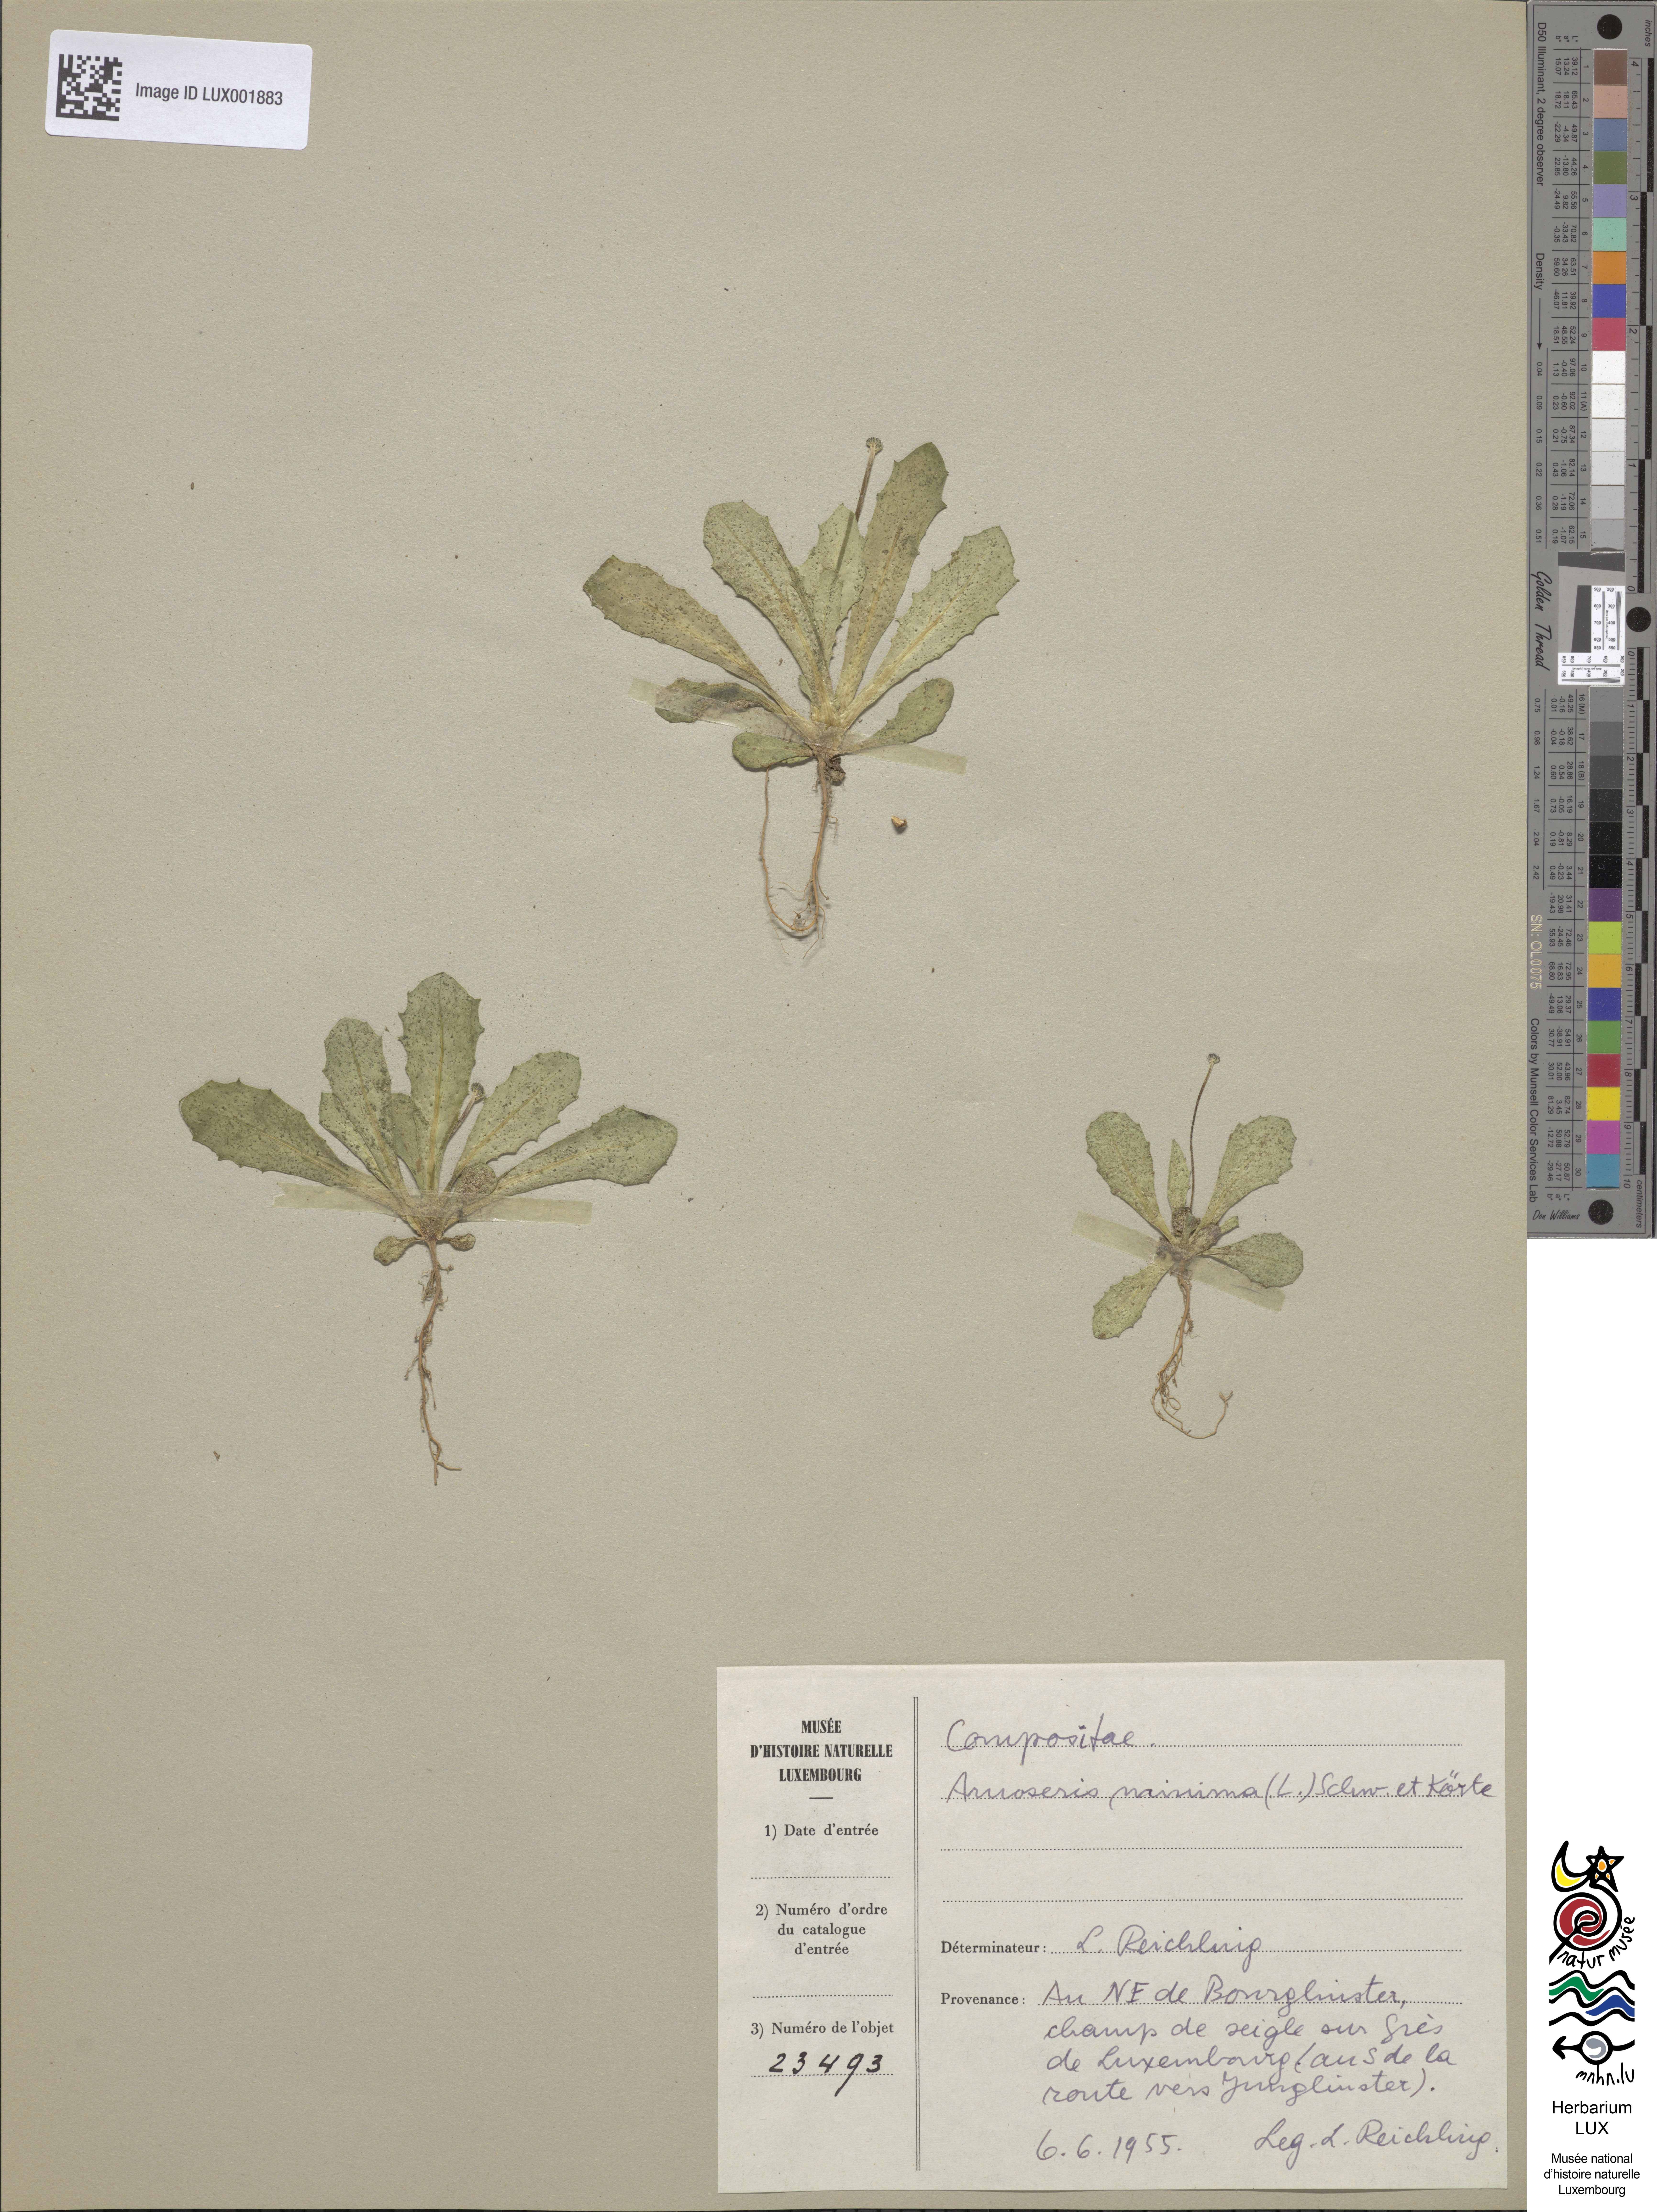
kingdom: Plantae
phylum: Tracheophyta
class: Magnoliopsida
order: Asterales
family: Asteraceae
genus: Arnoseris
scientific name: Arnoseris minima
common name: Lamb's succory
